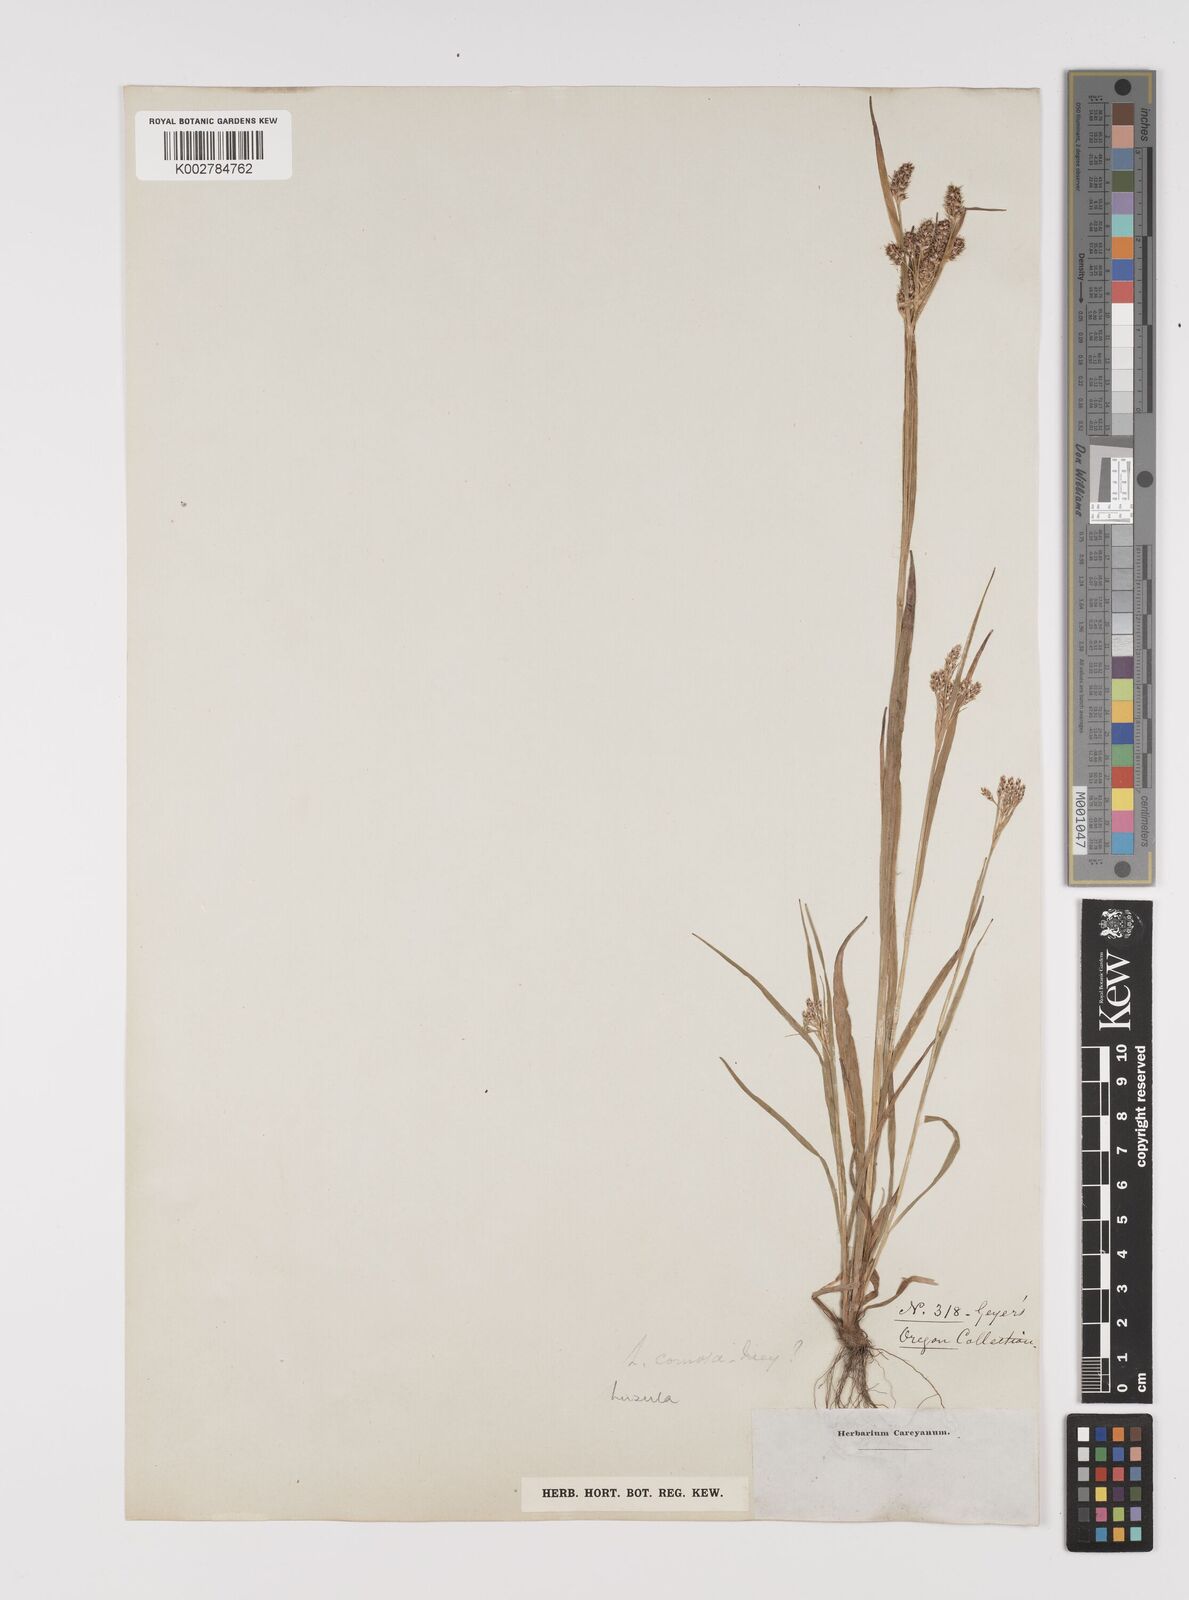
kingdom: Plantae
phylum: Tracheophyta
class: Liliopsida
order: Poales
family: Juncaceae
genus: Luzula
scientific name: Luzula comosa
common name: Pacific woodrush
